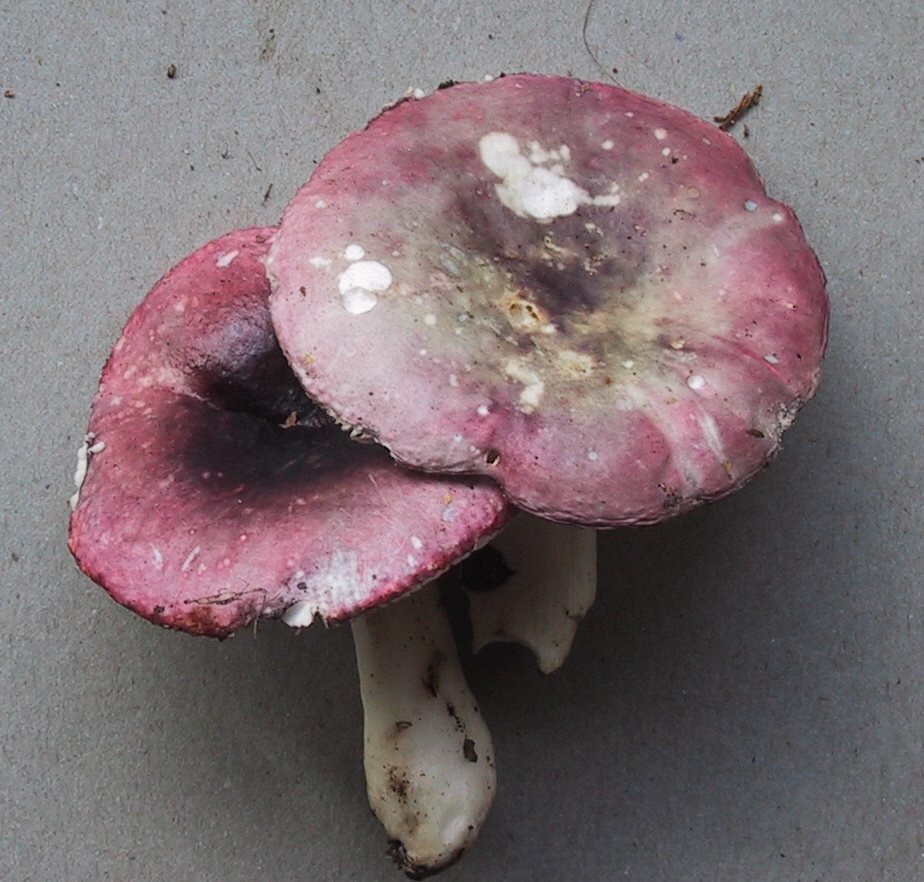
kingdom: Fungi
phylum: Basidiomycota
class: Agaricomycetes
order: Russulales
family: Russulaceae
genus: Russula
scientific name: Russula fragilis
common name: Fragile brittlegill
